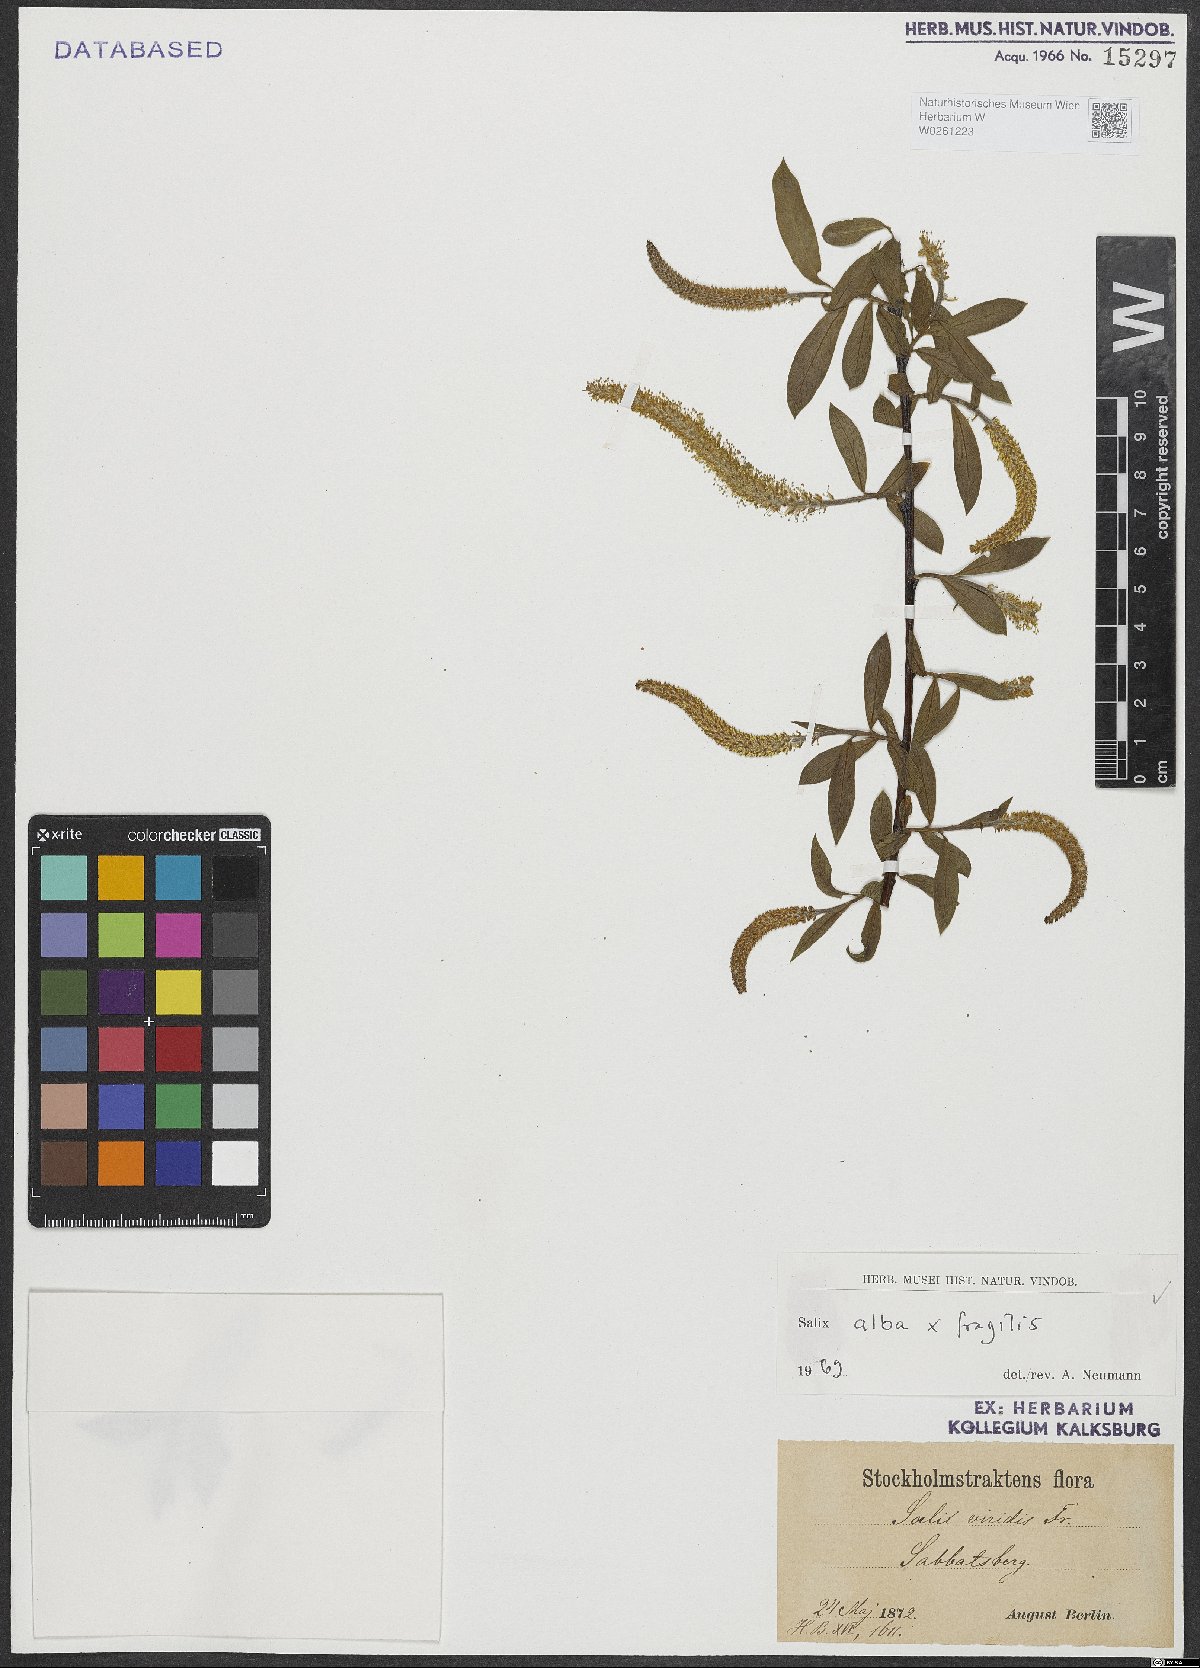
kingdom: Plantae
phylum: Tracheophyta
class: Magnoliopsida
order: Malpighiales
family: Salicaceae
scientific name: Salicaceae
